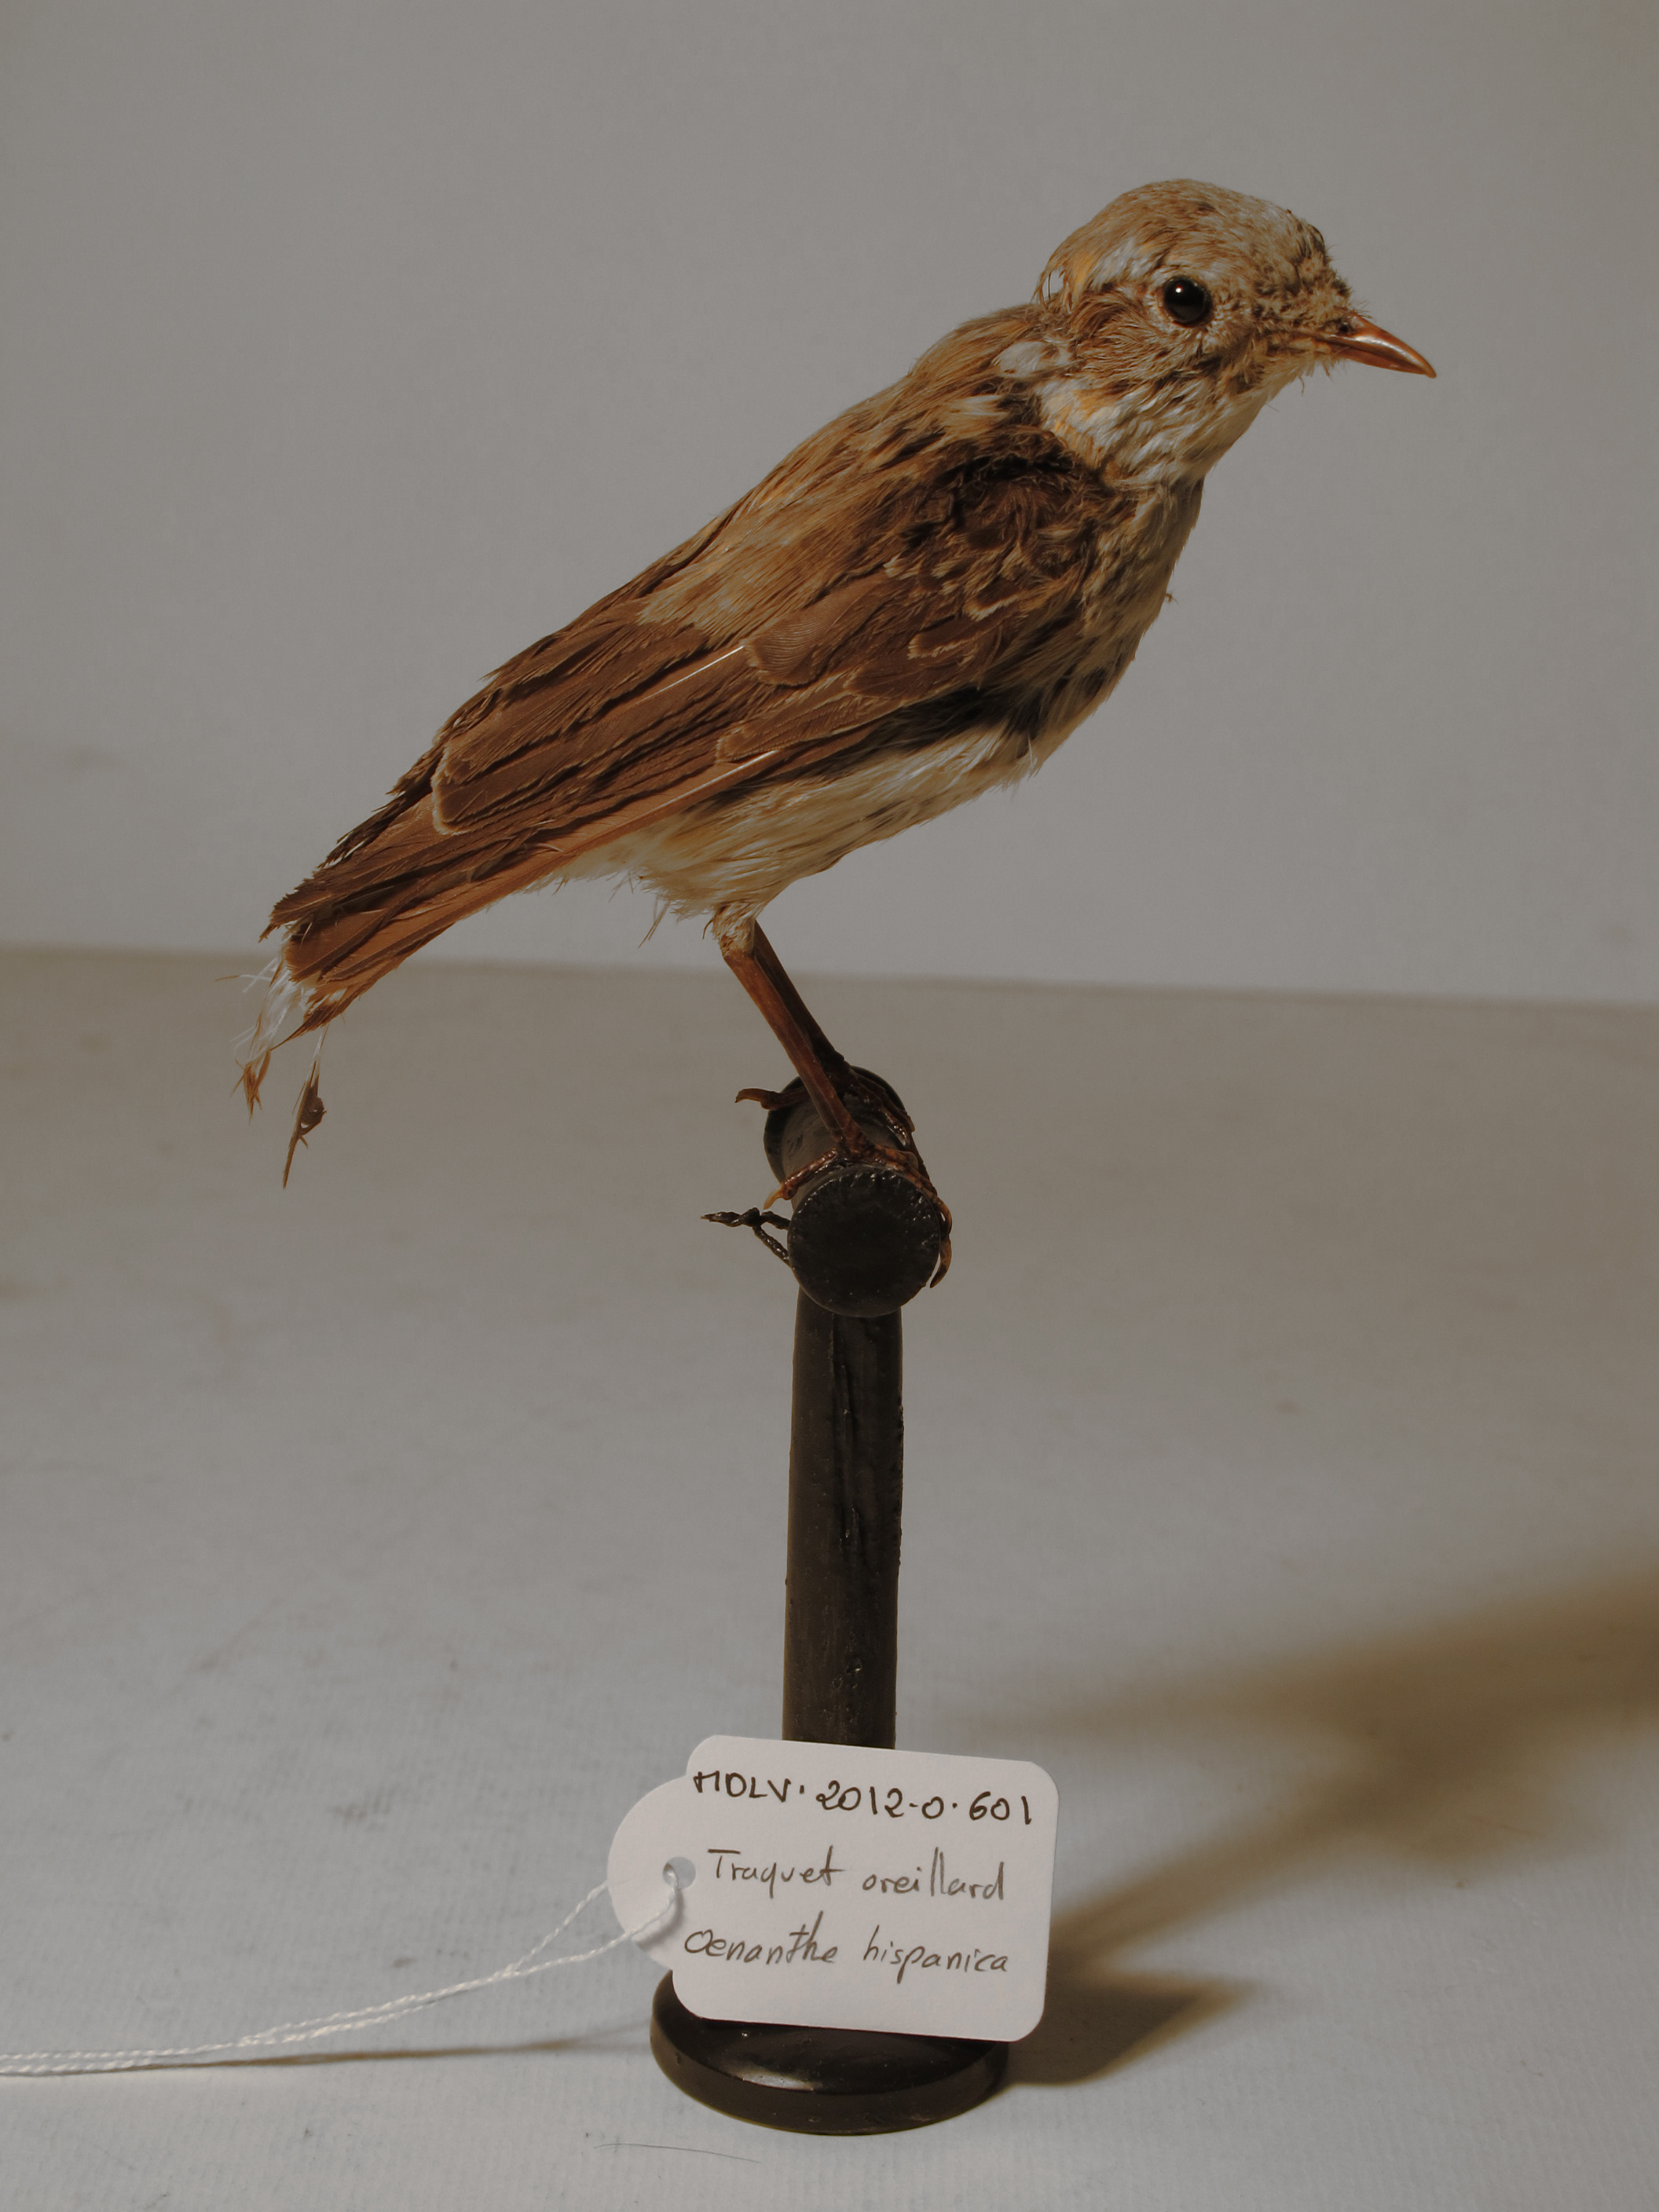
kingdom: Animalia
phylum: Chordata
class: Aves
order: Passeriformes
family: Muscicapidae
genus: Oenanthe
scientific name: Oenanthe hispanica
